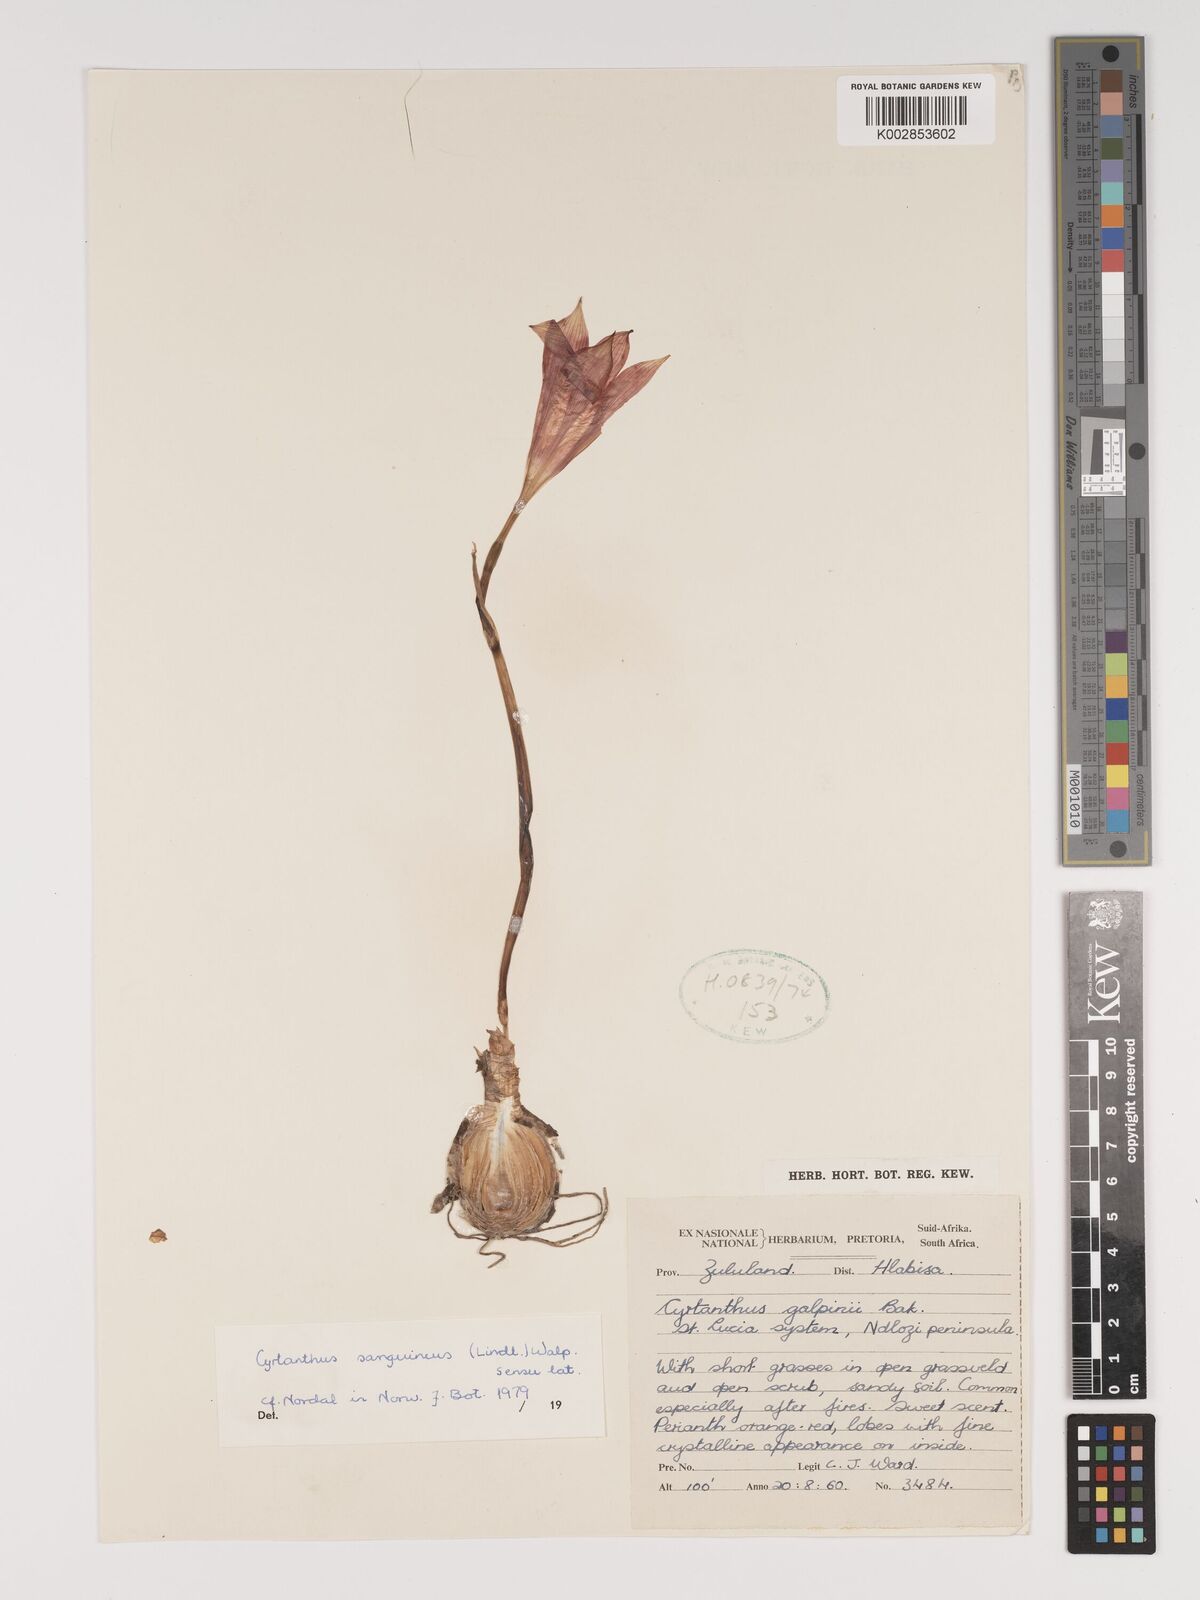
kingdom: Plantae
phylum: Tracheophyta
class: Liliopsida
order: Asparagales
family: Amaryllidaceae
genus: Cyrtanthus
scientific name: Cyrtanthus sanguineus
